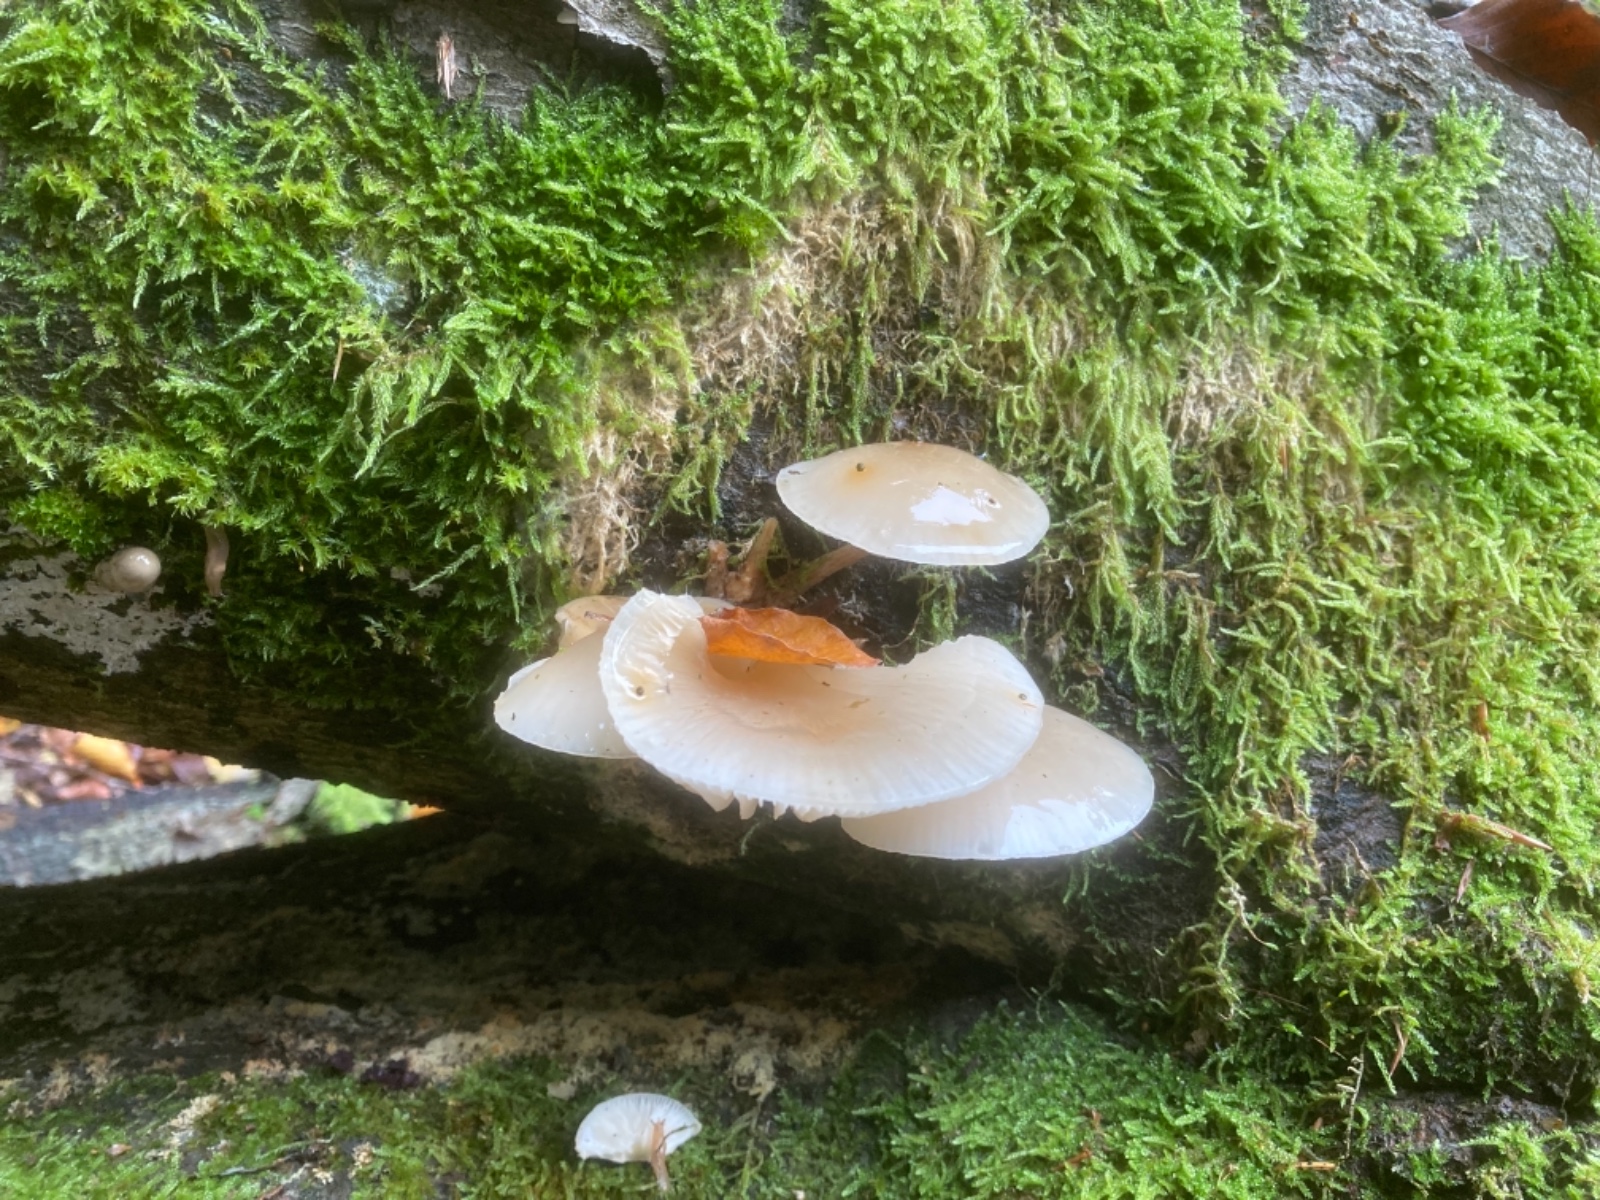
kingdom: Fungi
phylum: Basidiomycota
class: Agaricomycetes
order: Agaricales
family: Physalacriaceae
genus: Mucidula
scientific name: Mucidula mucida
